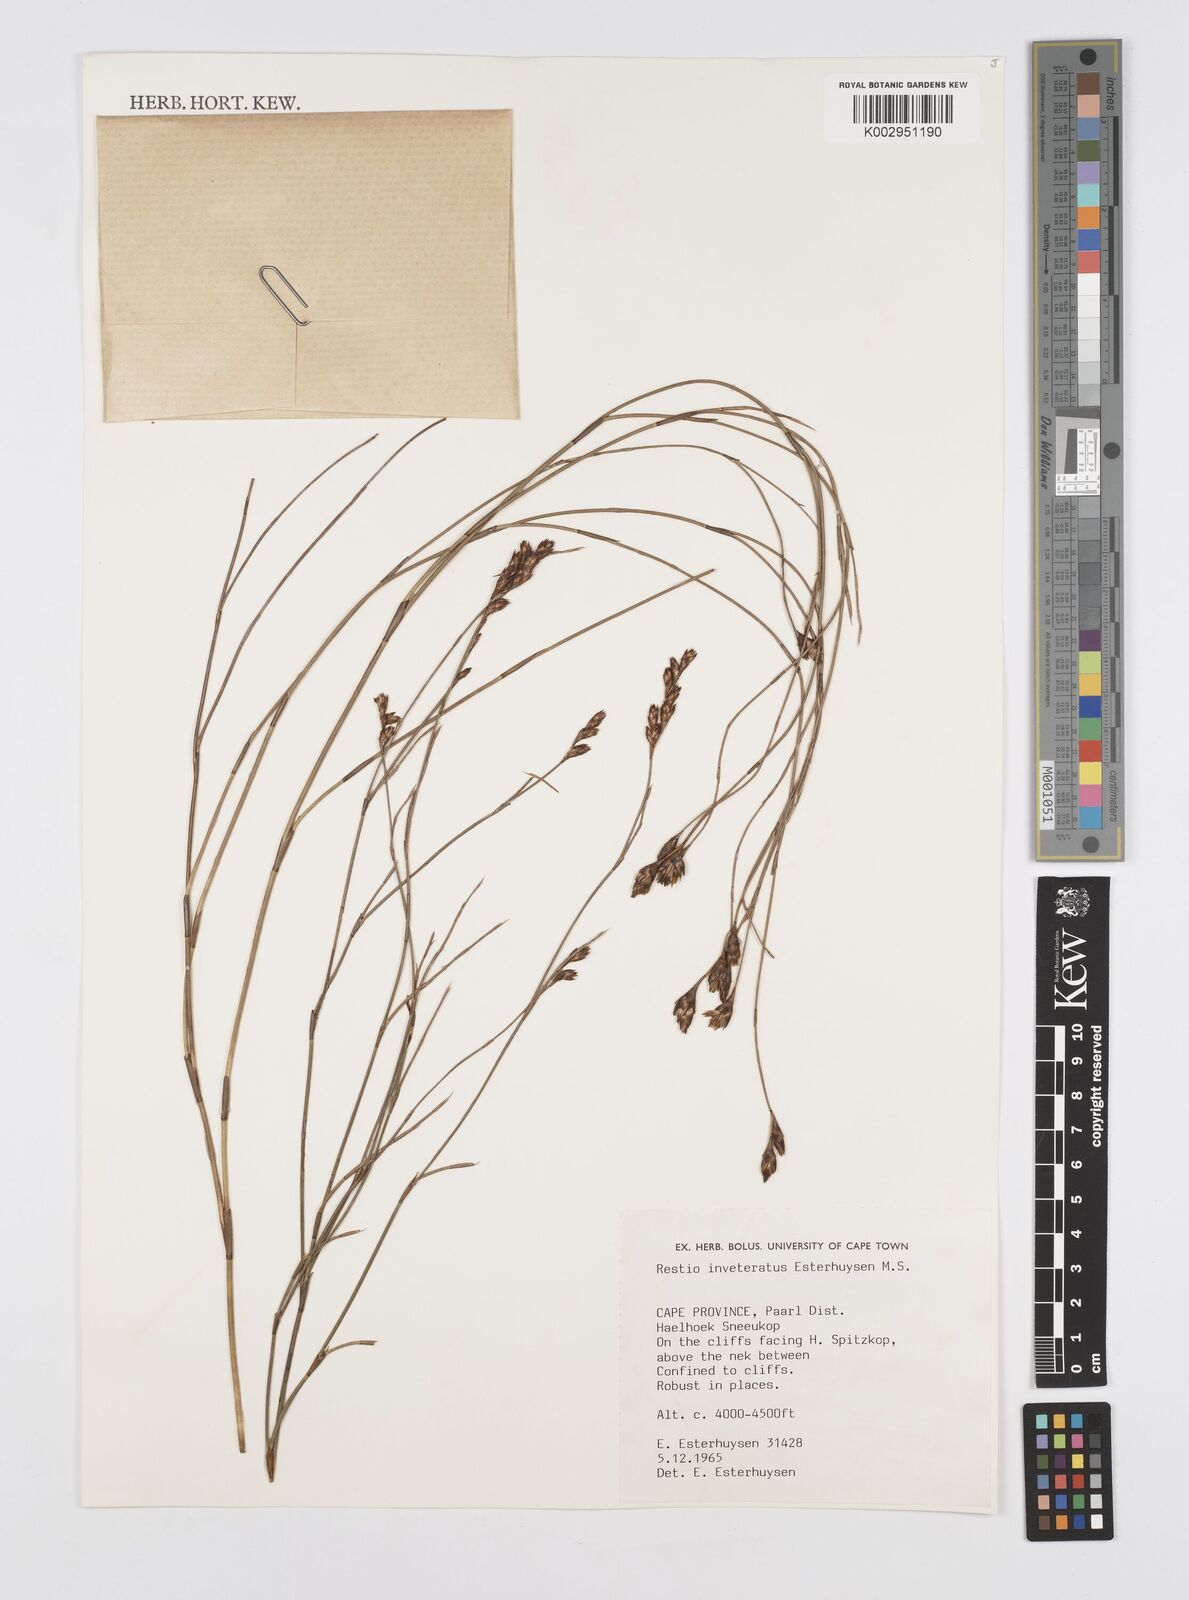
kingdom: Plantae
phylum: Tracheophyta
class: Liliopsida
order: Poales
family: Restionaceae
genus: Restio
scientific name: Restio inveteratus
